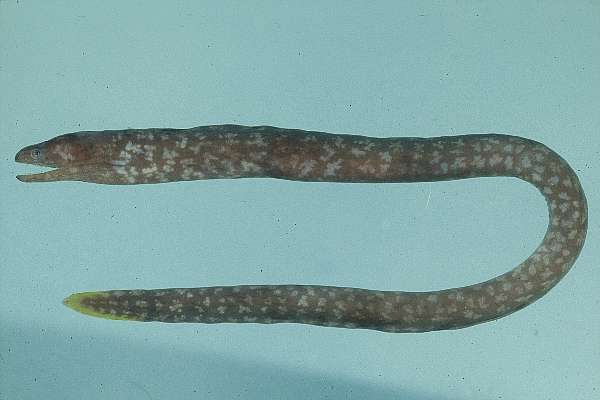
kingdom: Animalia
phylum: Chordata
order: Anguilliformes
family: Muraenidae
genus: Uropterygius
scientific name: Uropterygius xanthopterus
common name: Freckleface reef-eel
